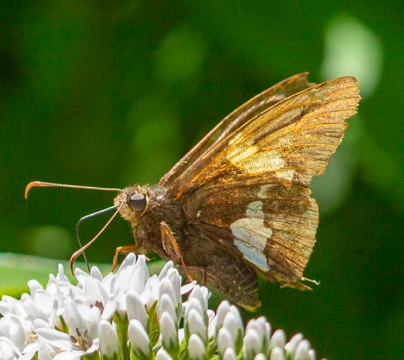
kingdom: Animalia
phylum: Arthropoda
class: Insecta
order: Lepidoptera
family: Hesperiidae
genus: Epargyreus
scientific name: Epargyreus clarus
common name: Silver-spotted Skipper
